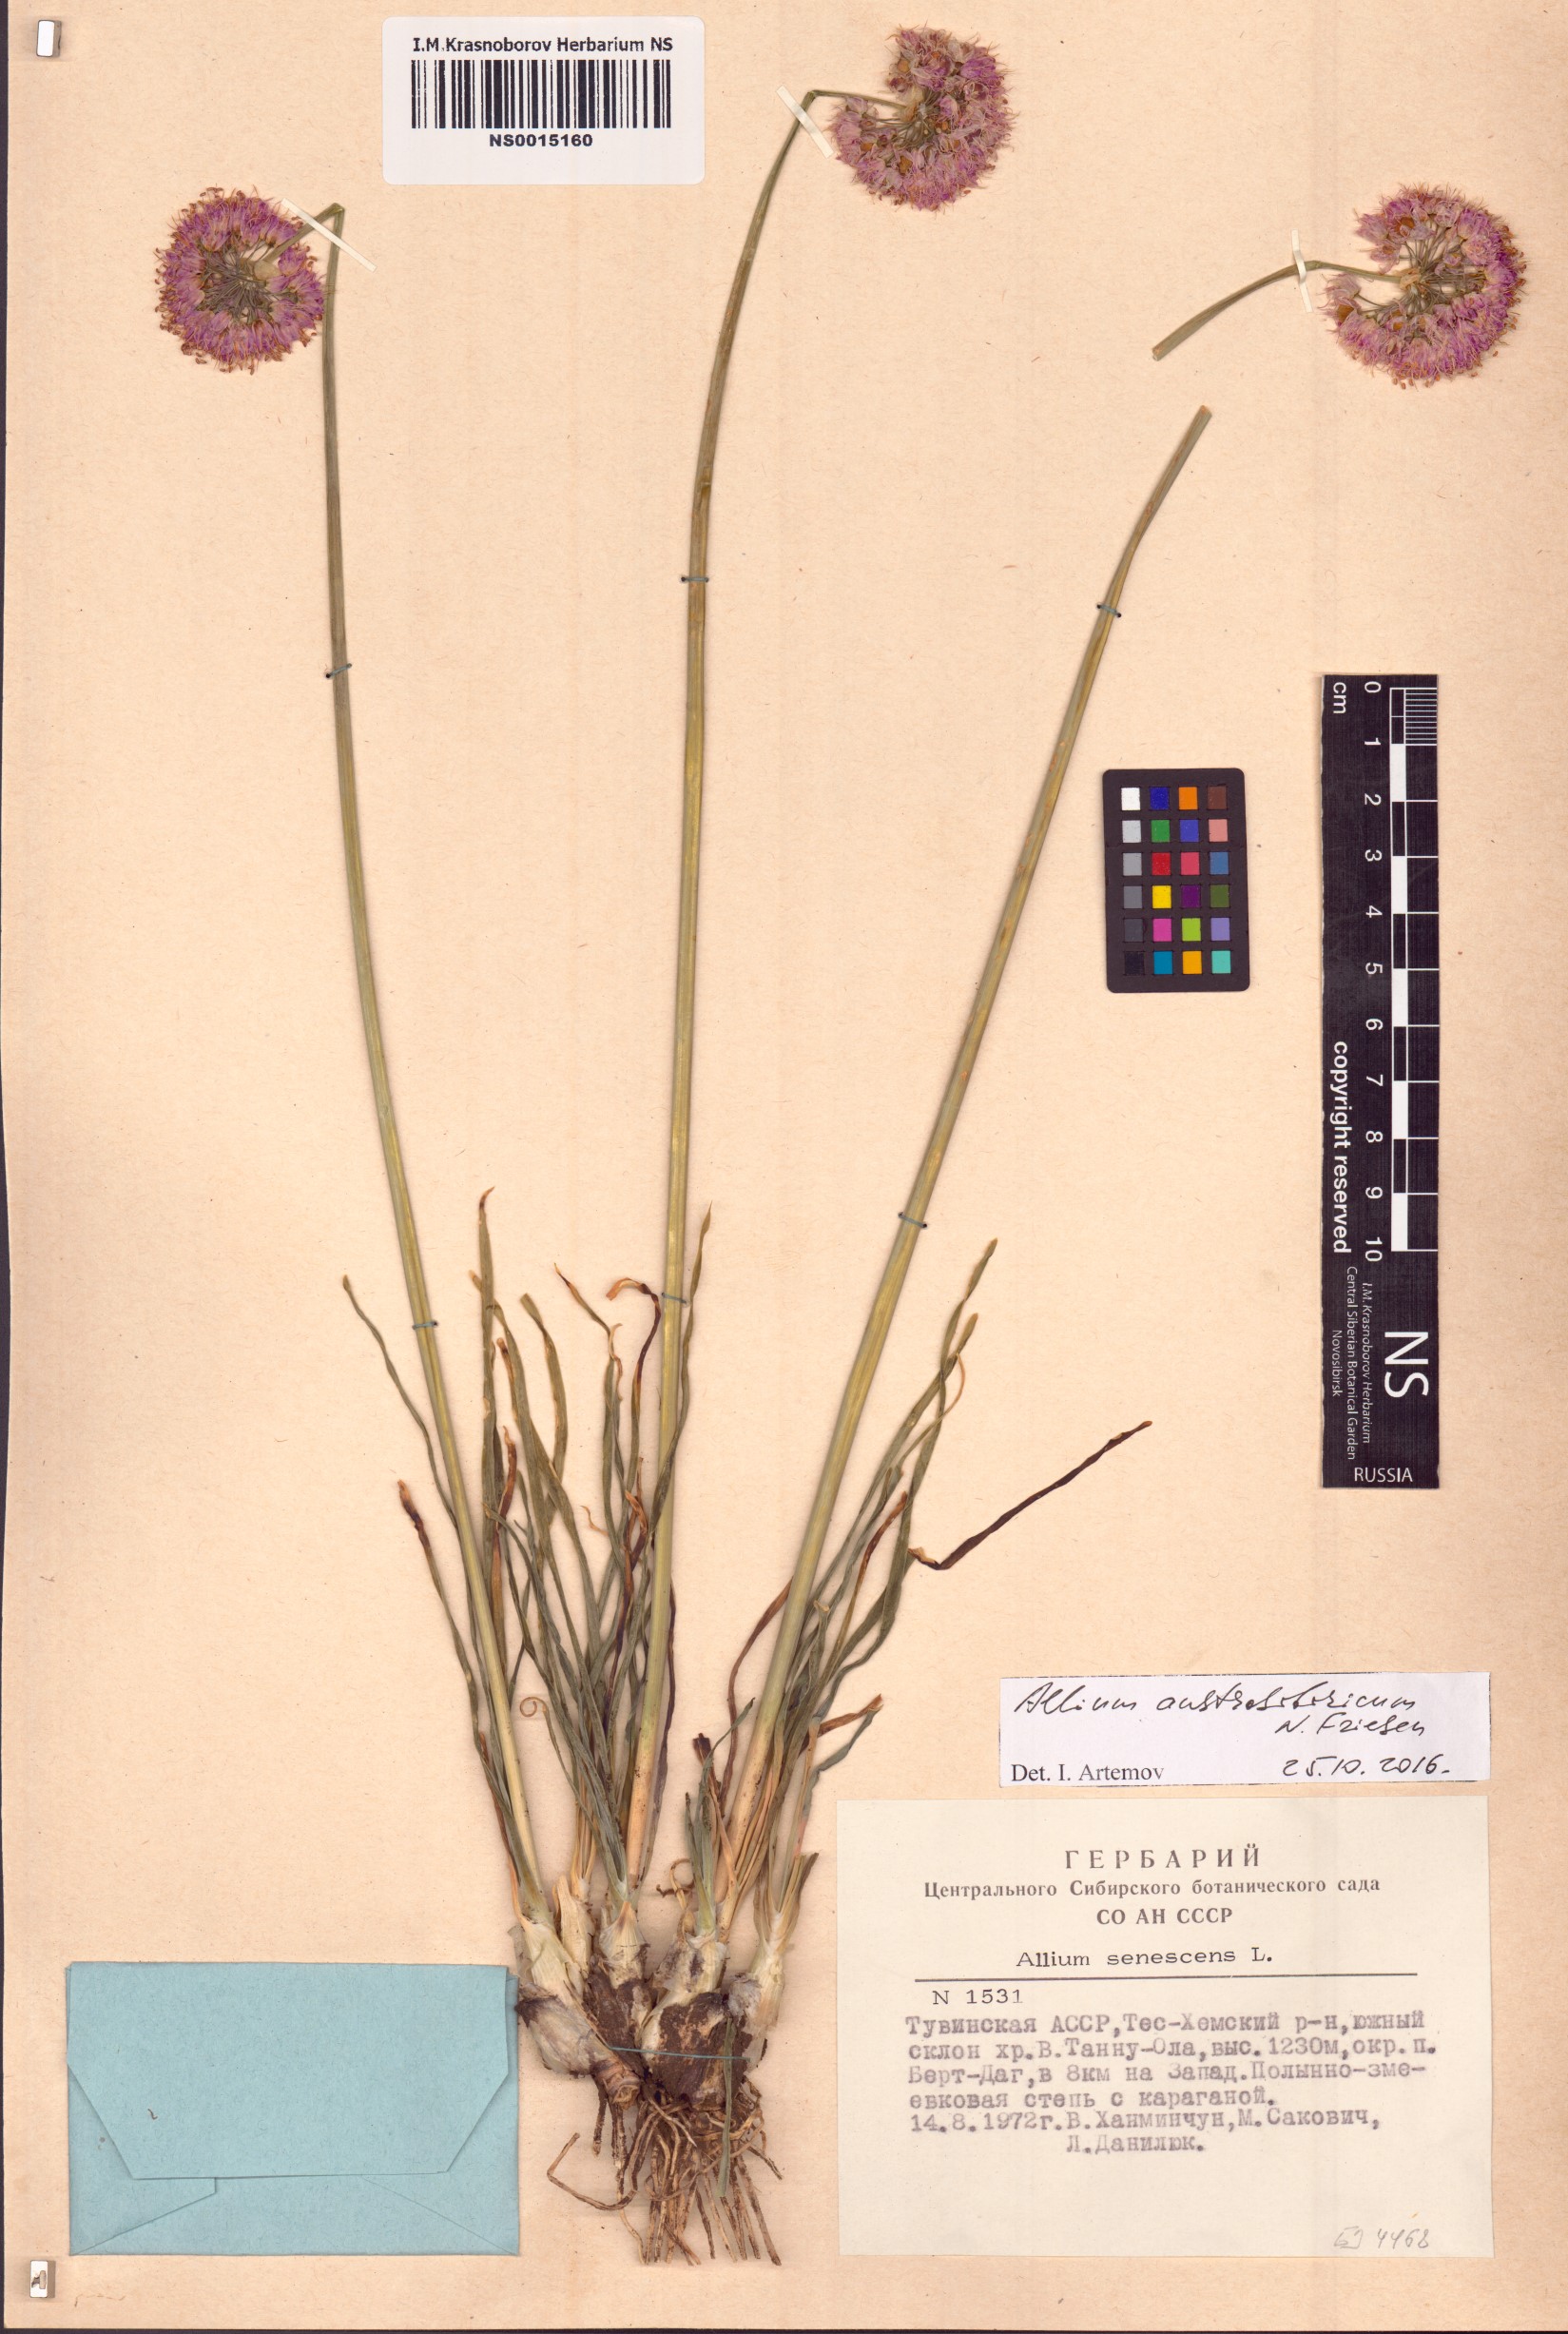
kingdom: Plantae
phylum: Tracheophyta
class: Liliopsida
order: Asparagales
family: Amaryllidaceae
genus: Allium
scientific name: Allium austrosibiricum
